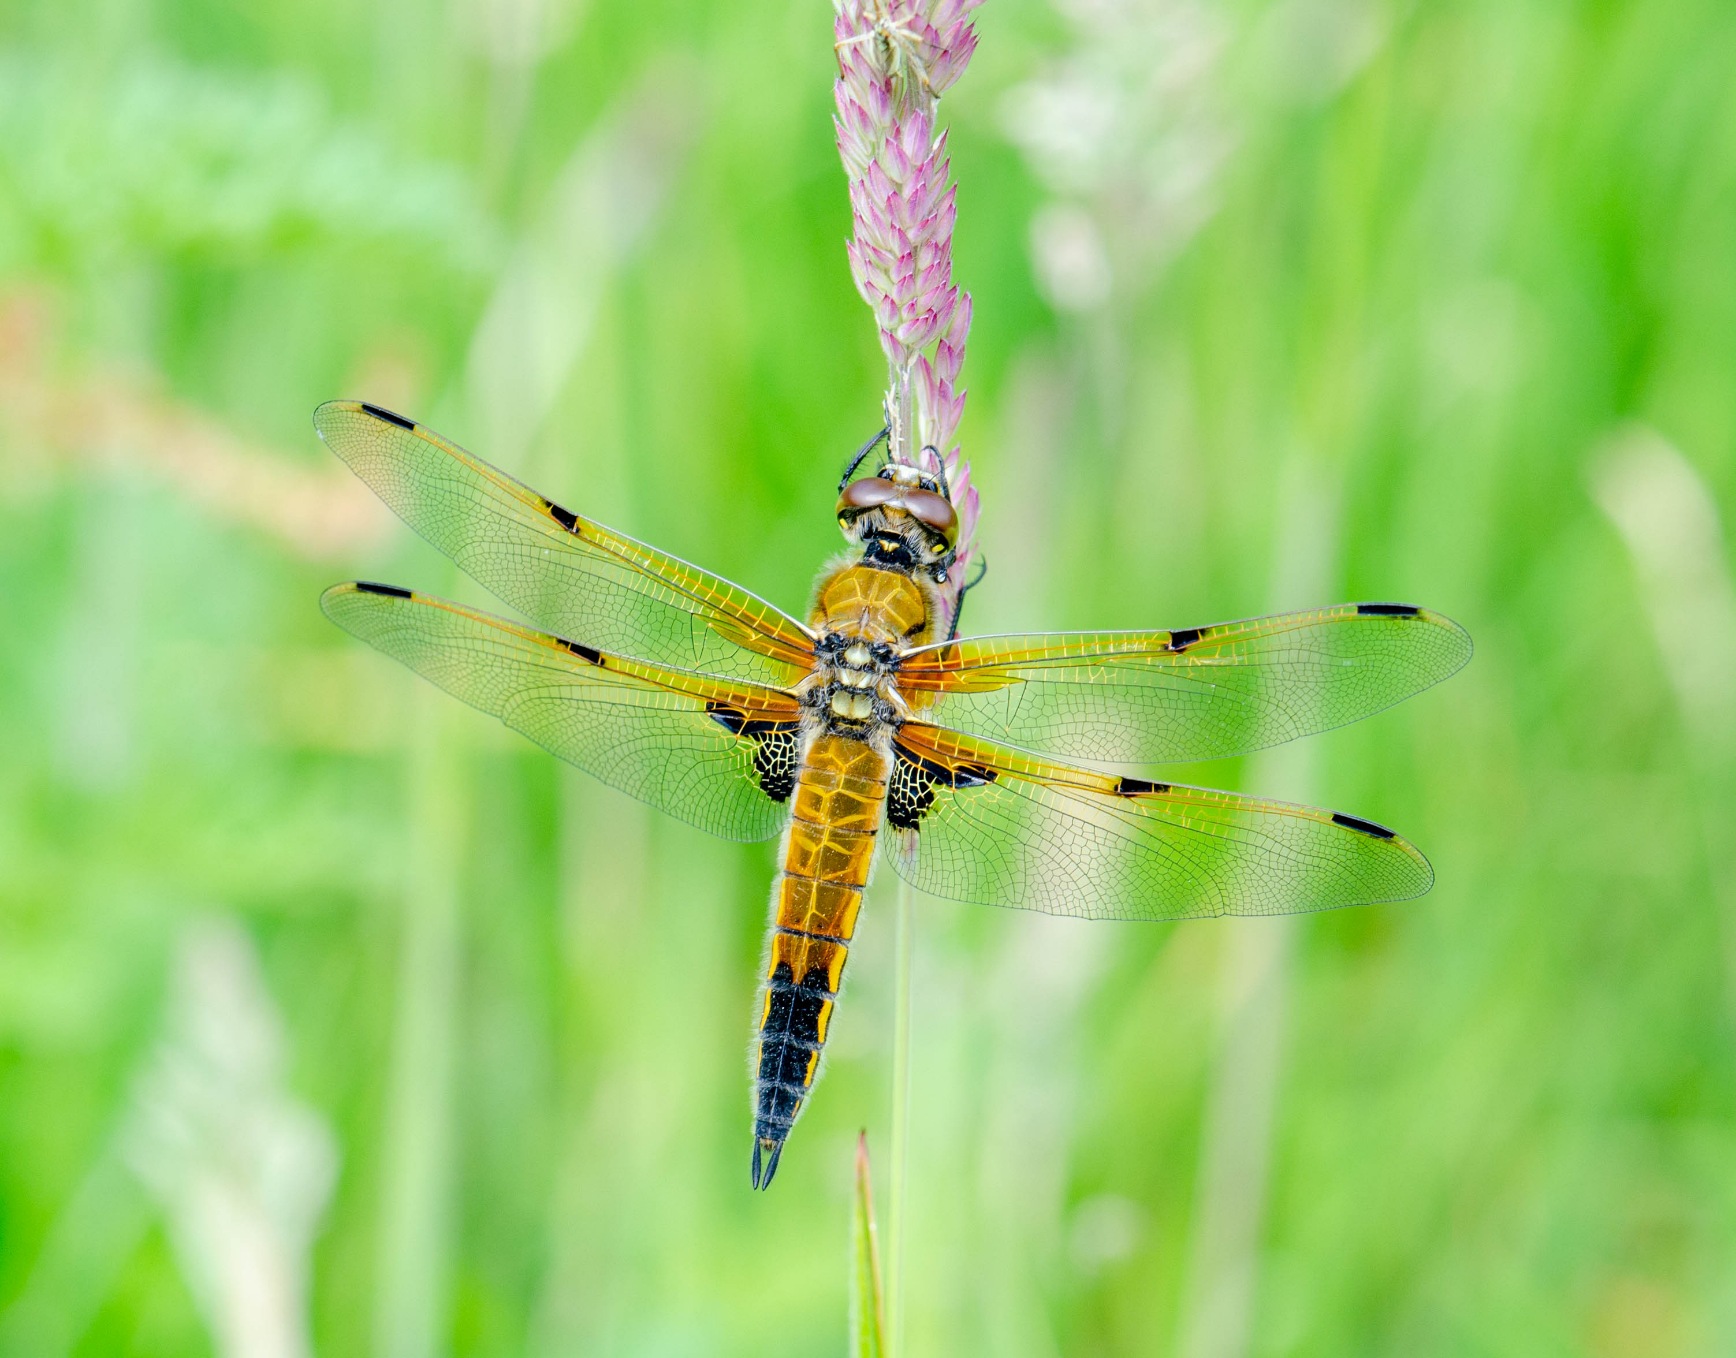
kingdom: Animalia
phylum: Arthropoda
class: Insecta
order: Odonata
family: Libellulidae
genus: Libellula
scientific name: Libellula quadrimaculata
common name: Fireplettet libel
